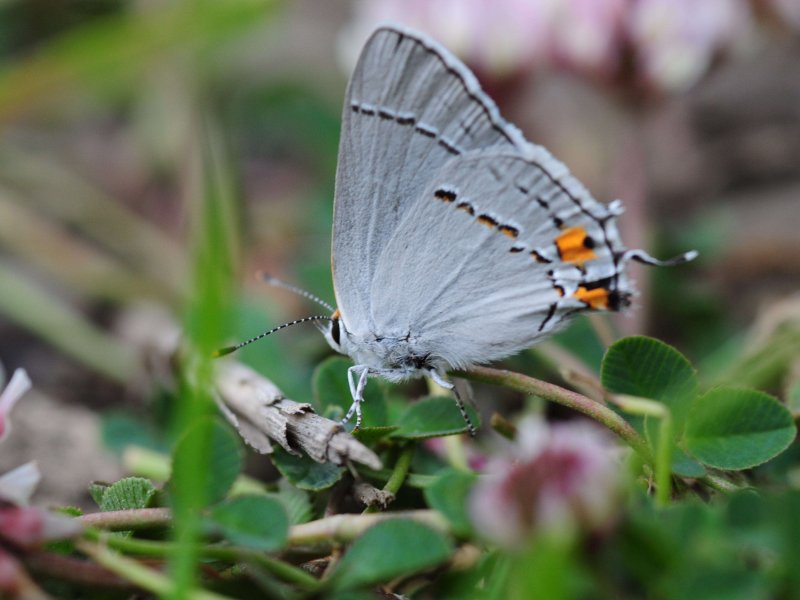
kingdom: Animalia
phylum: Arthropoda
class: Insecta
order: Lepidoptera
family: Lycaenidae
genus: Strymon
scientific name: Strymon melinus
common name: Gray Hairstreak
